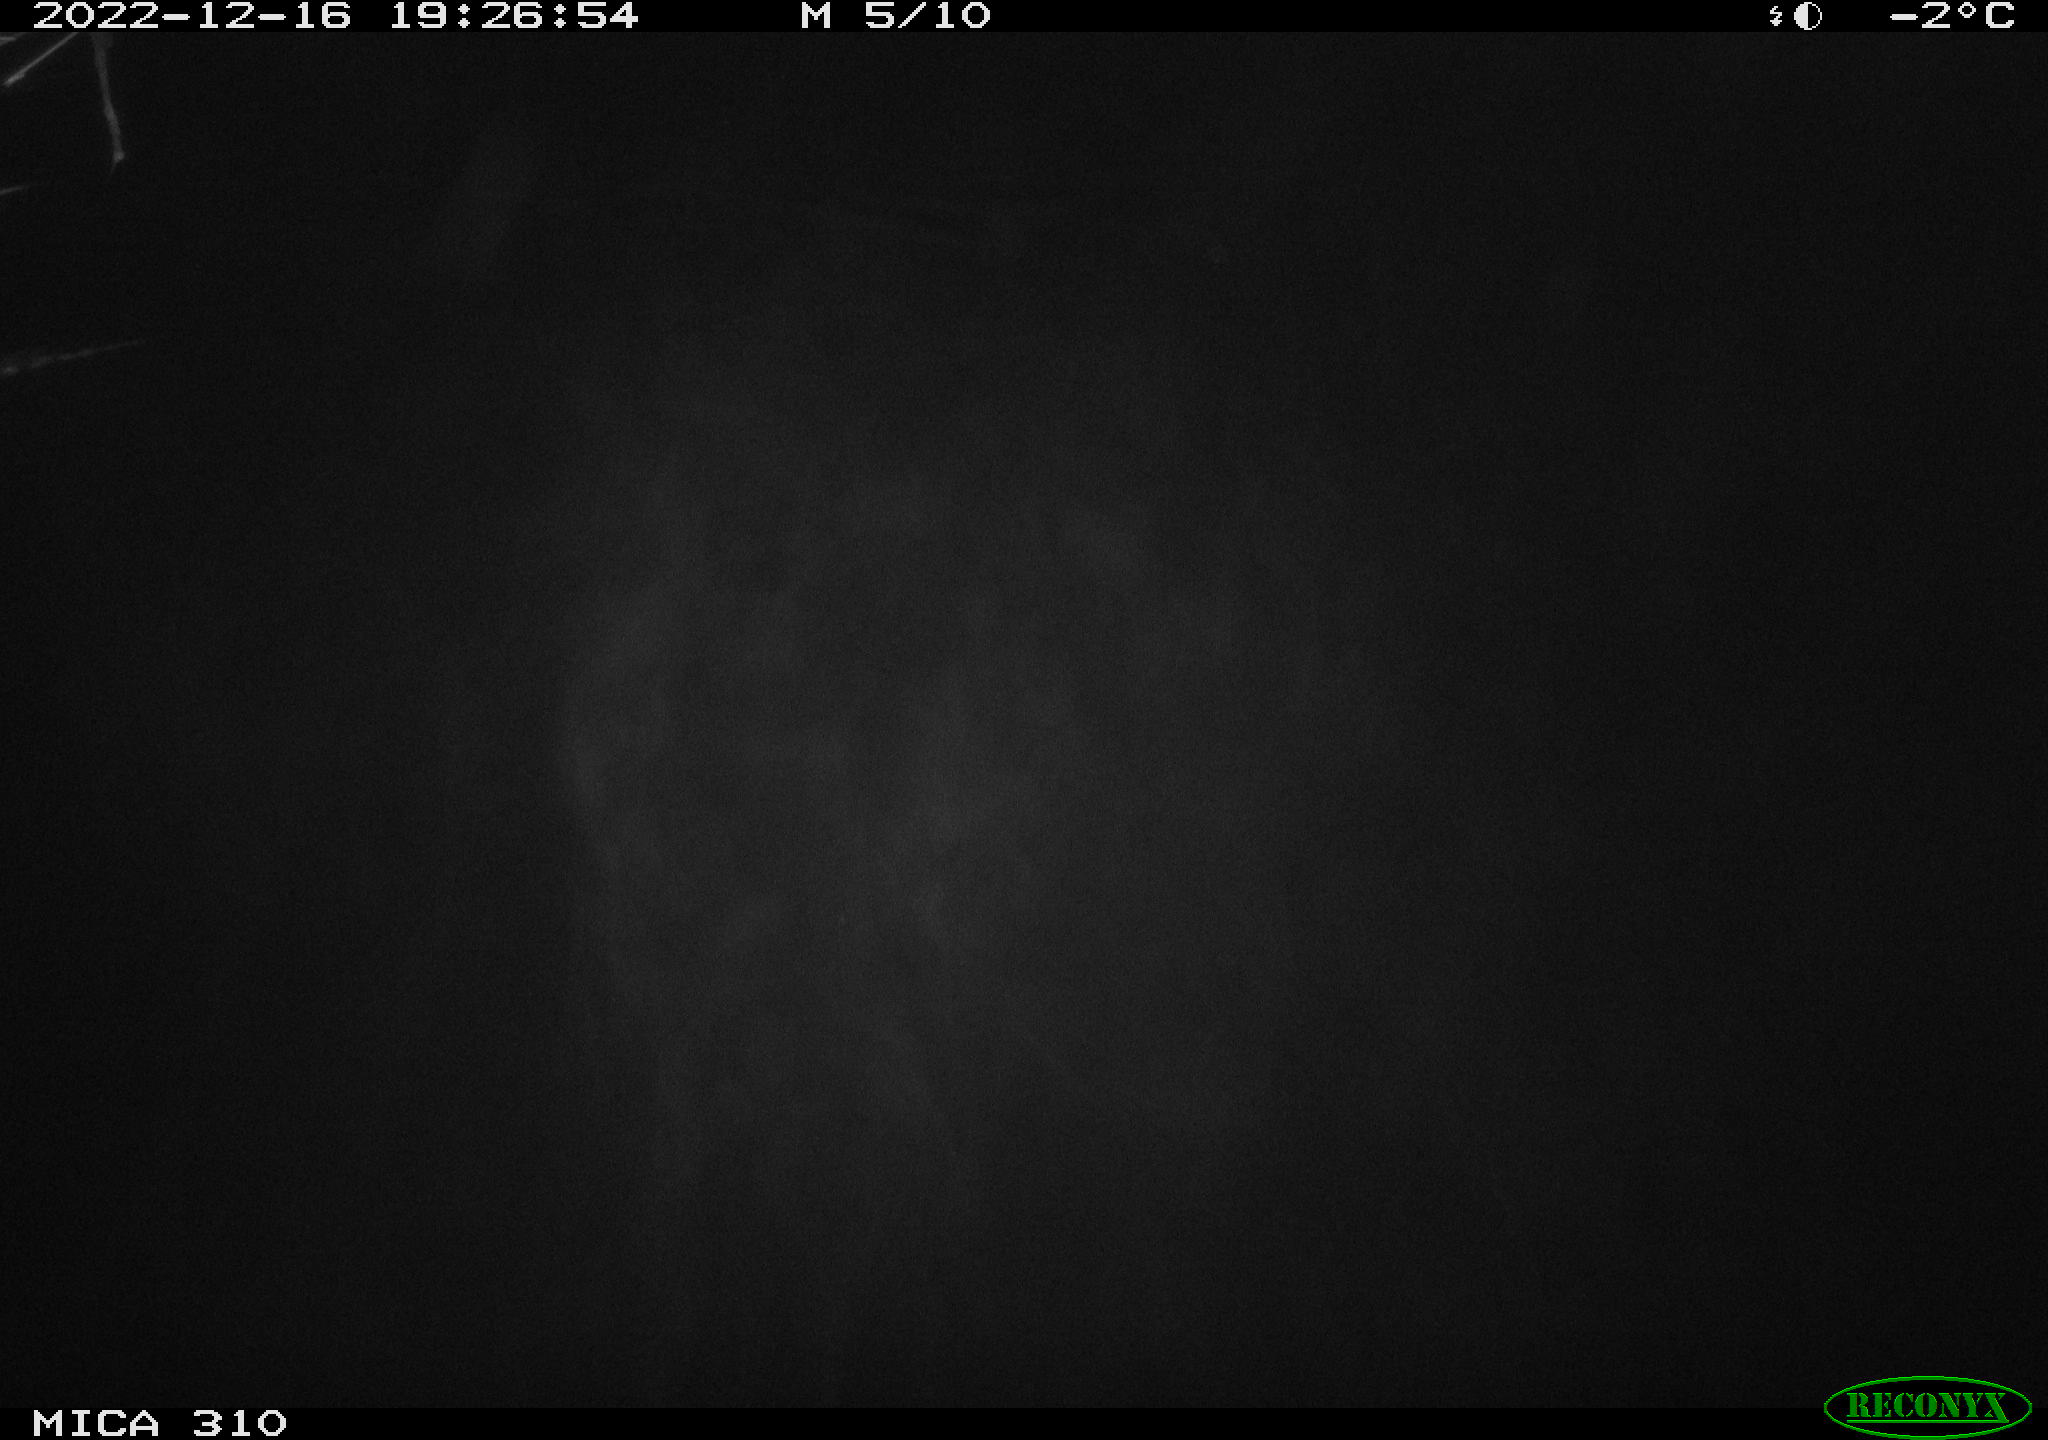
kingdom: Animalia
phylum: Chordata
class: Mammalia
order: Rodentia
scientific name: Rodentia
